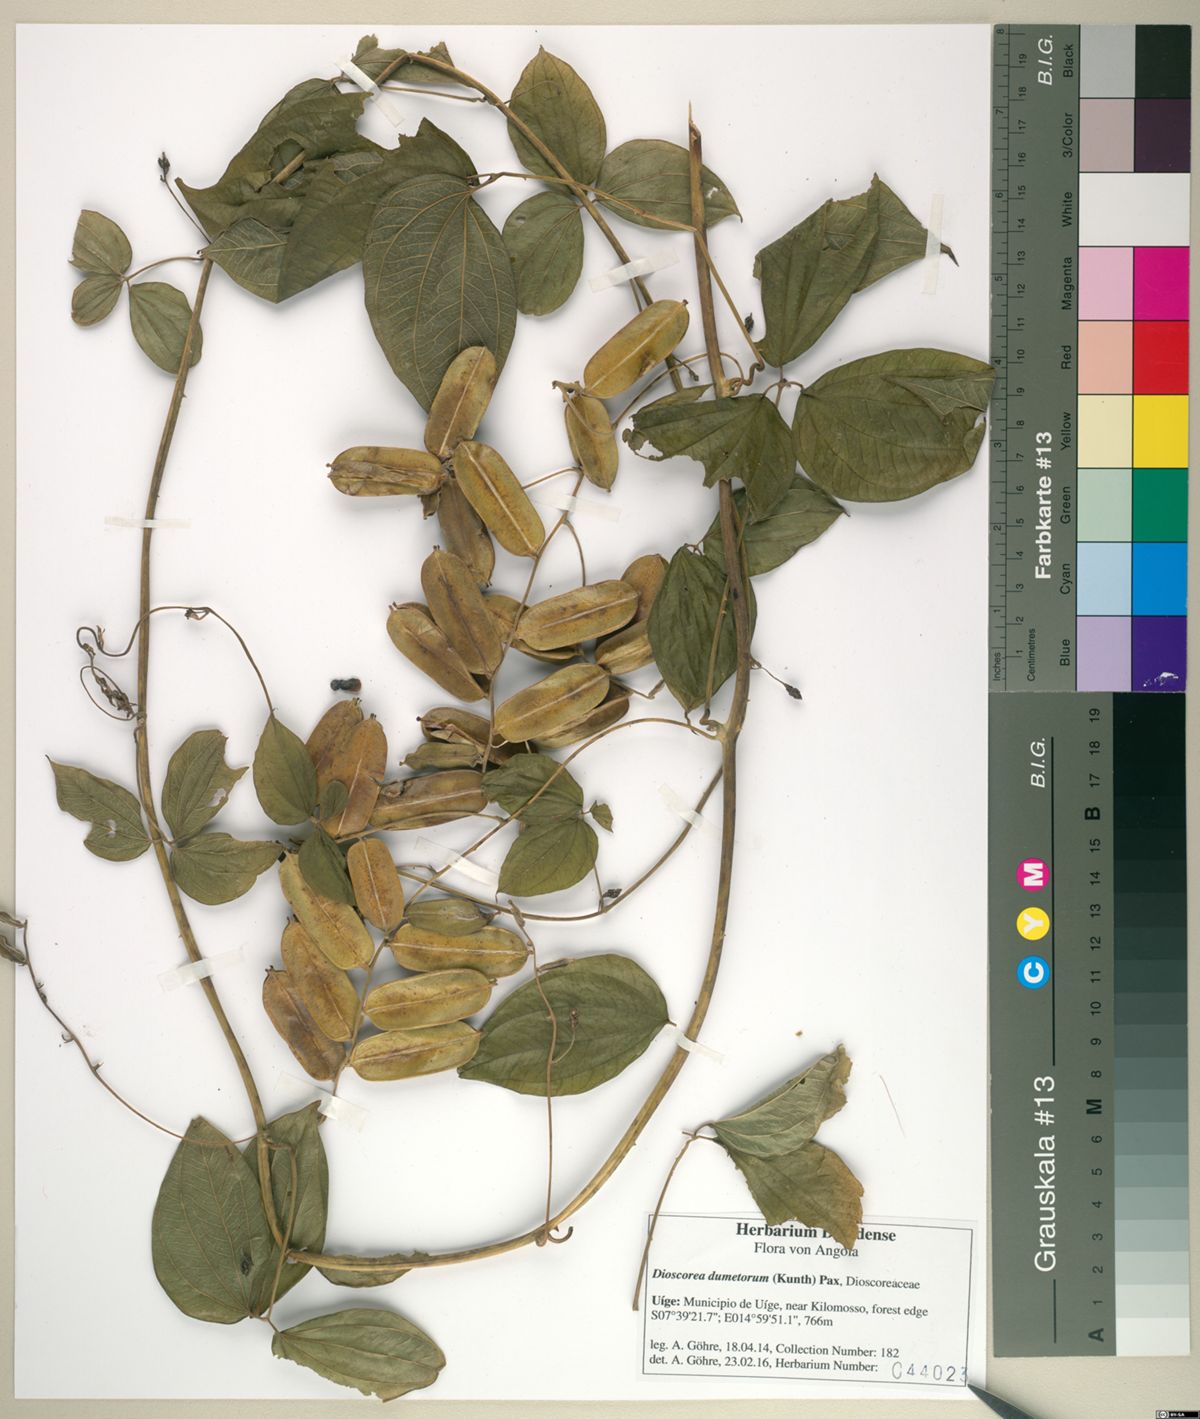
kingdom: Plantae
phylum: Tracheophyta
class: Liliopsida
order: Dioscoreales
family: Dioscoreaceae
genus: Dioscorea
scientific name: Dioscorea dumetorum
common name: African bitter yam
